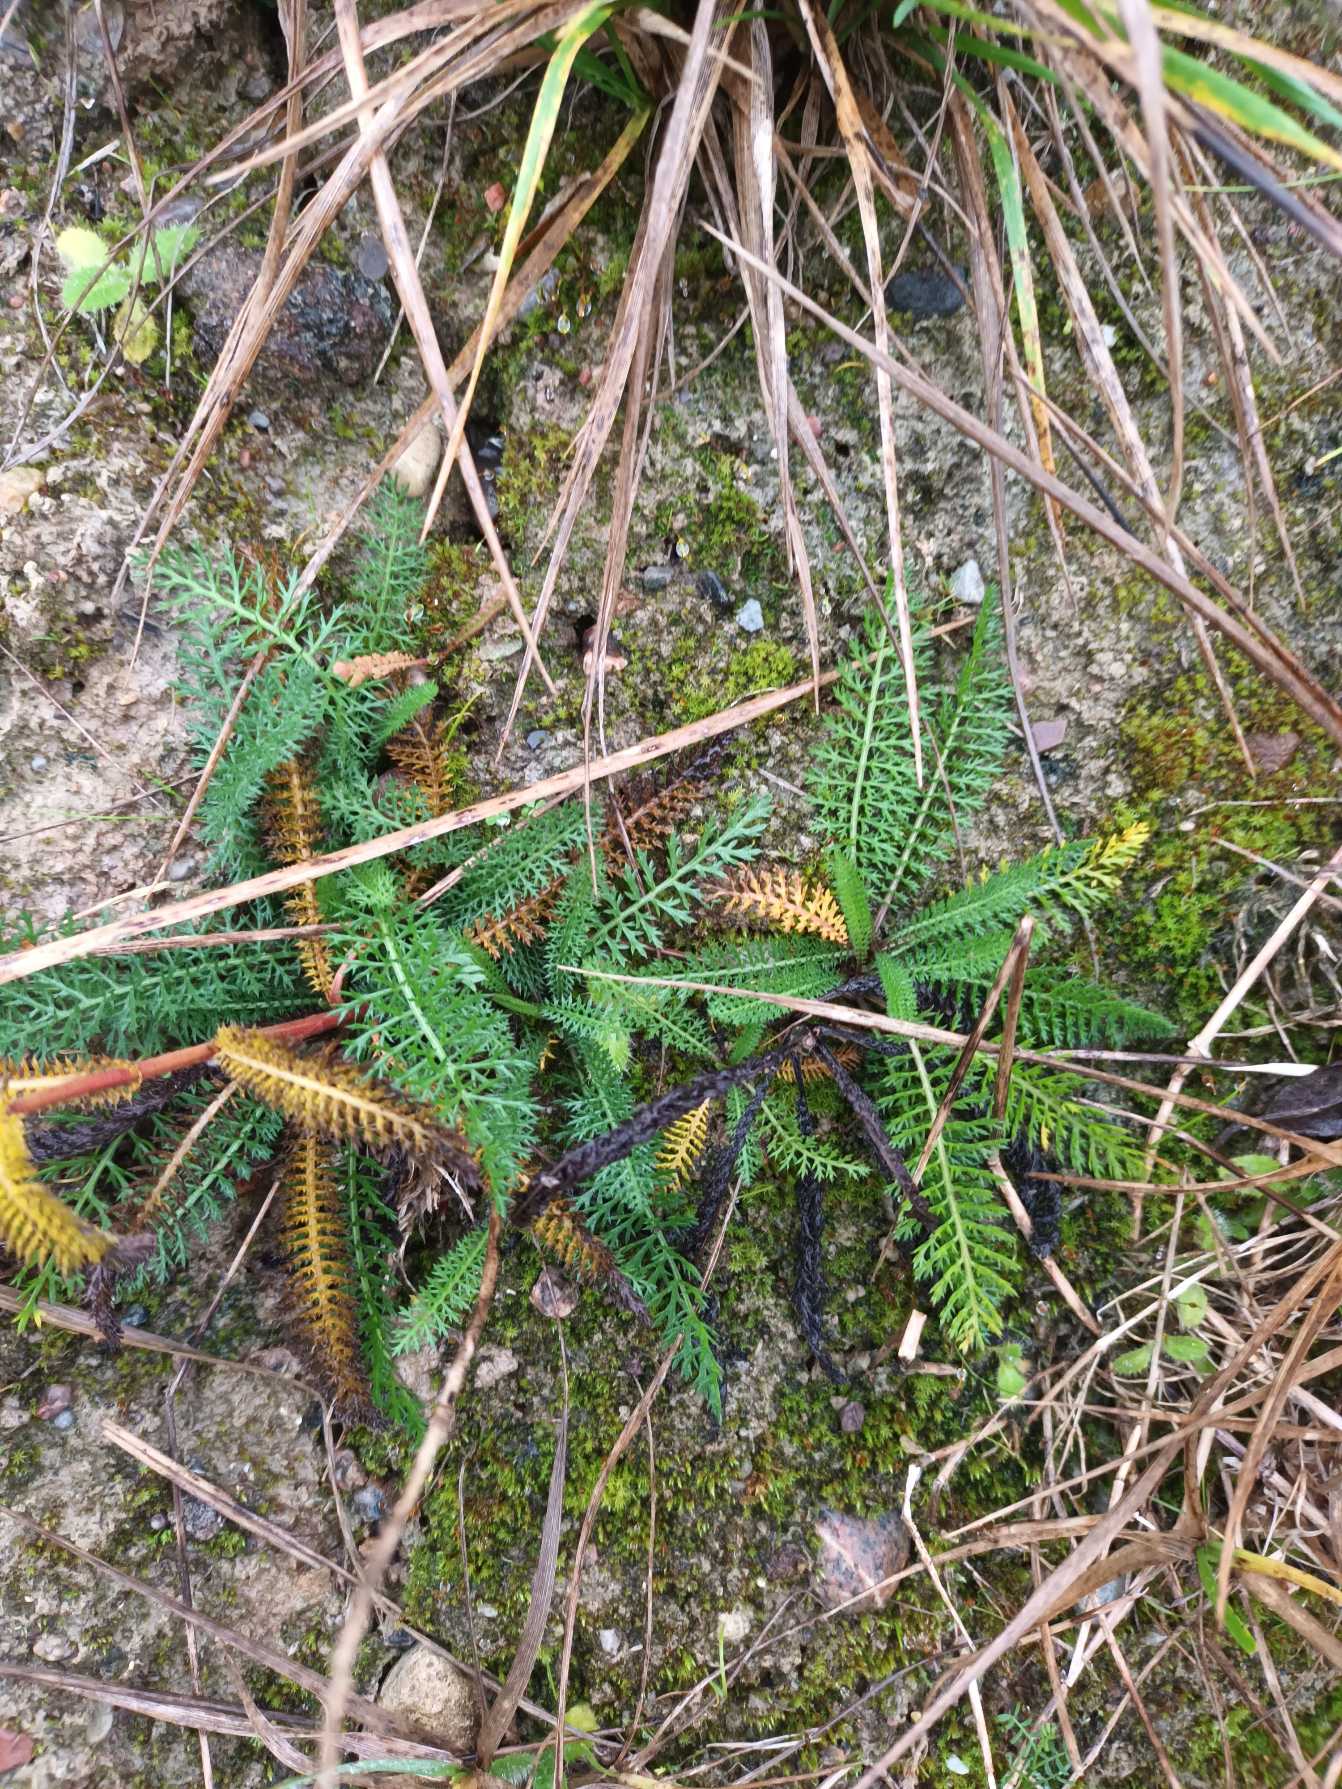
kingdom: Plantae
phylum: Tracheophyta
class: Magnoliopsida
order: Asterales
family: Asteraceae
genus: Achillea
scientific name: Achillea millefolium
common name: Almindelig røllike
